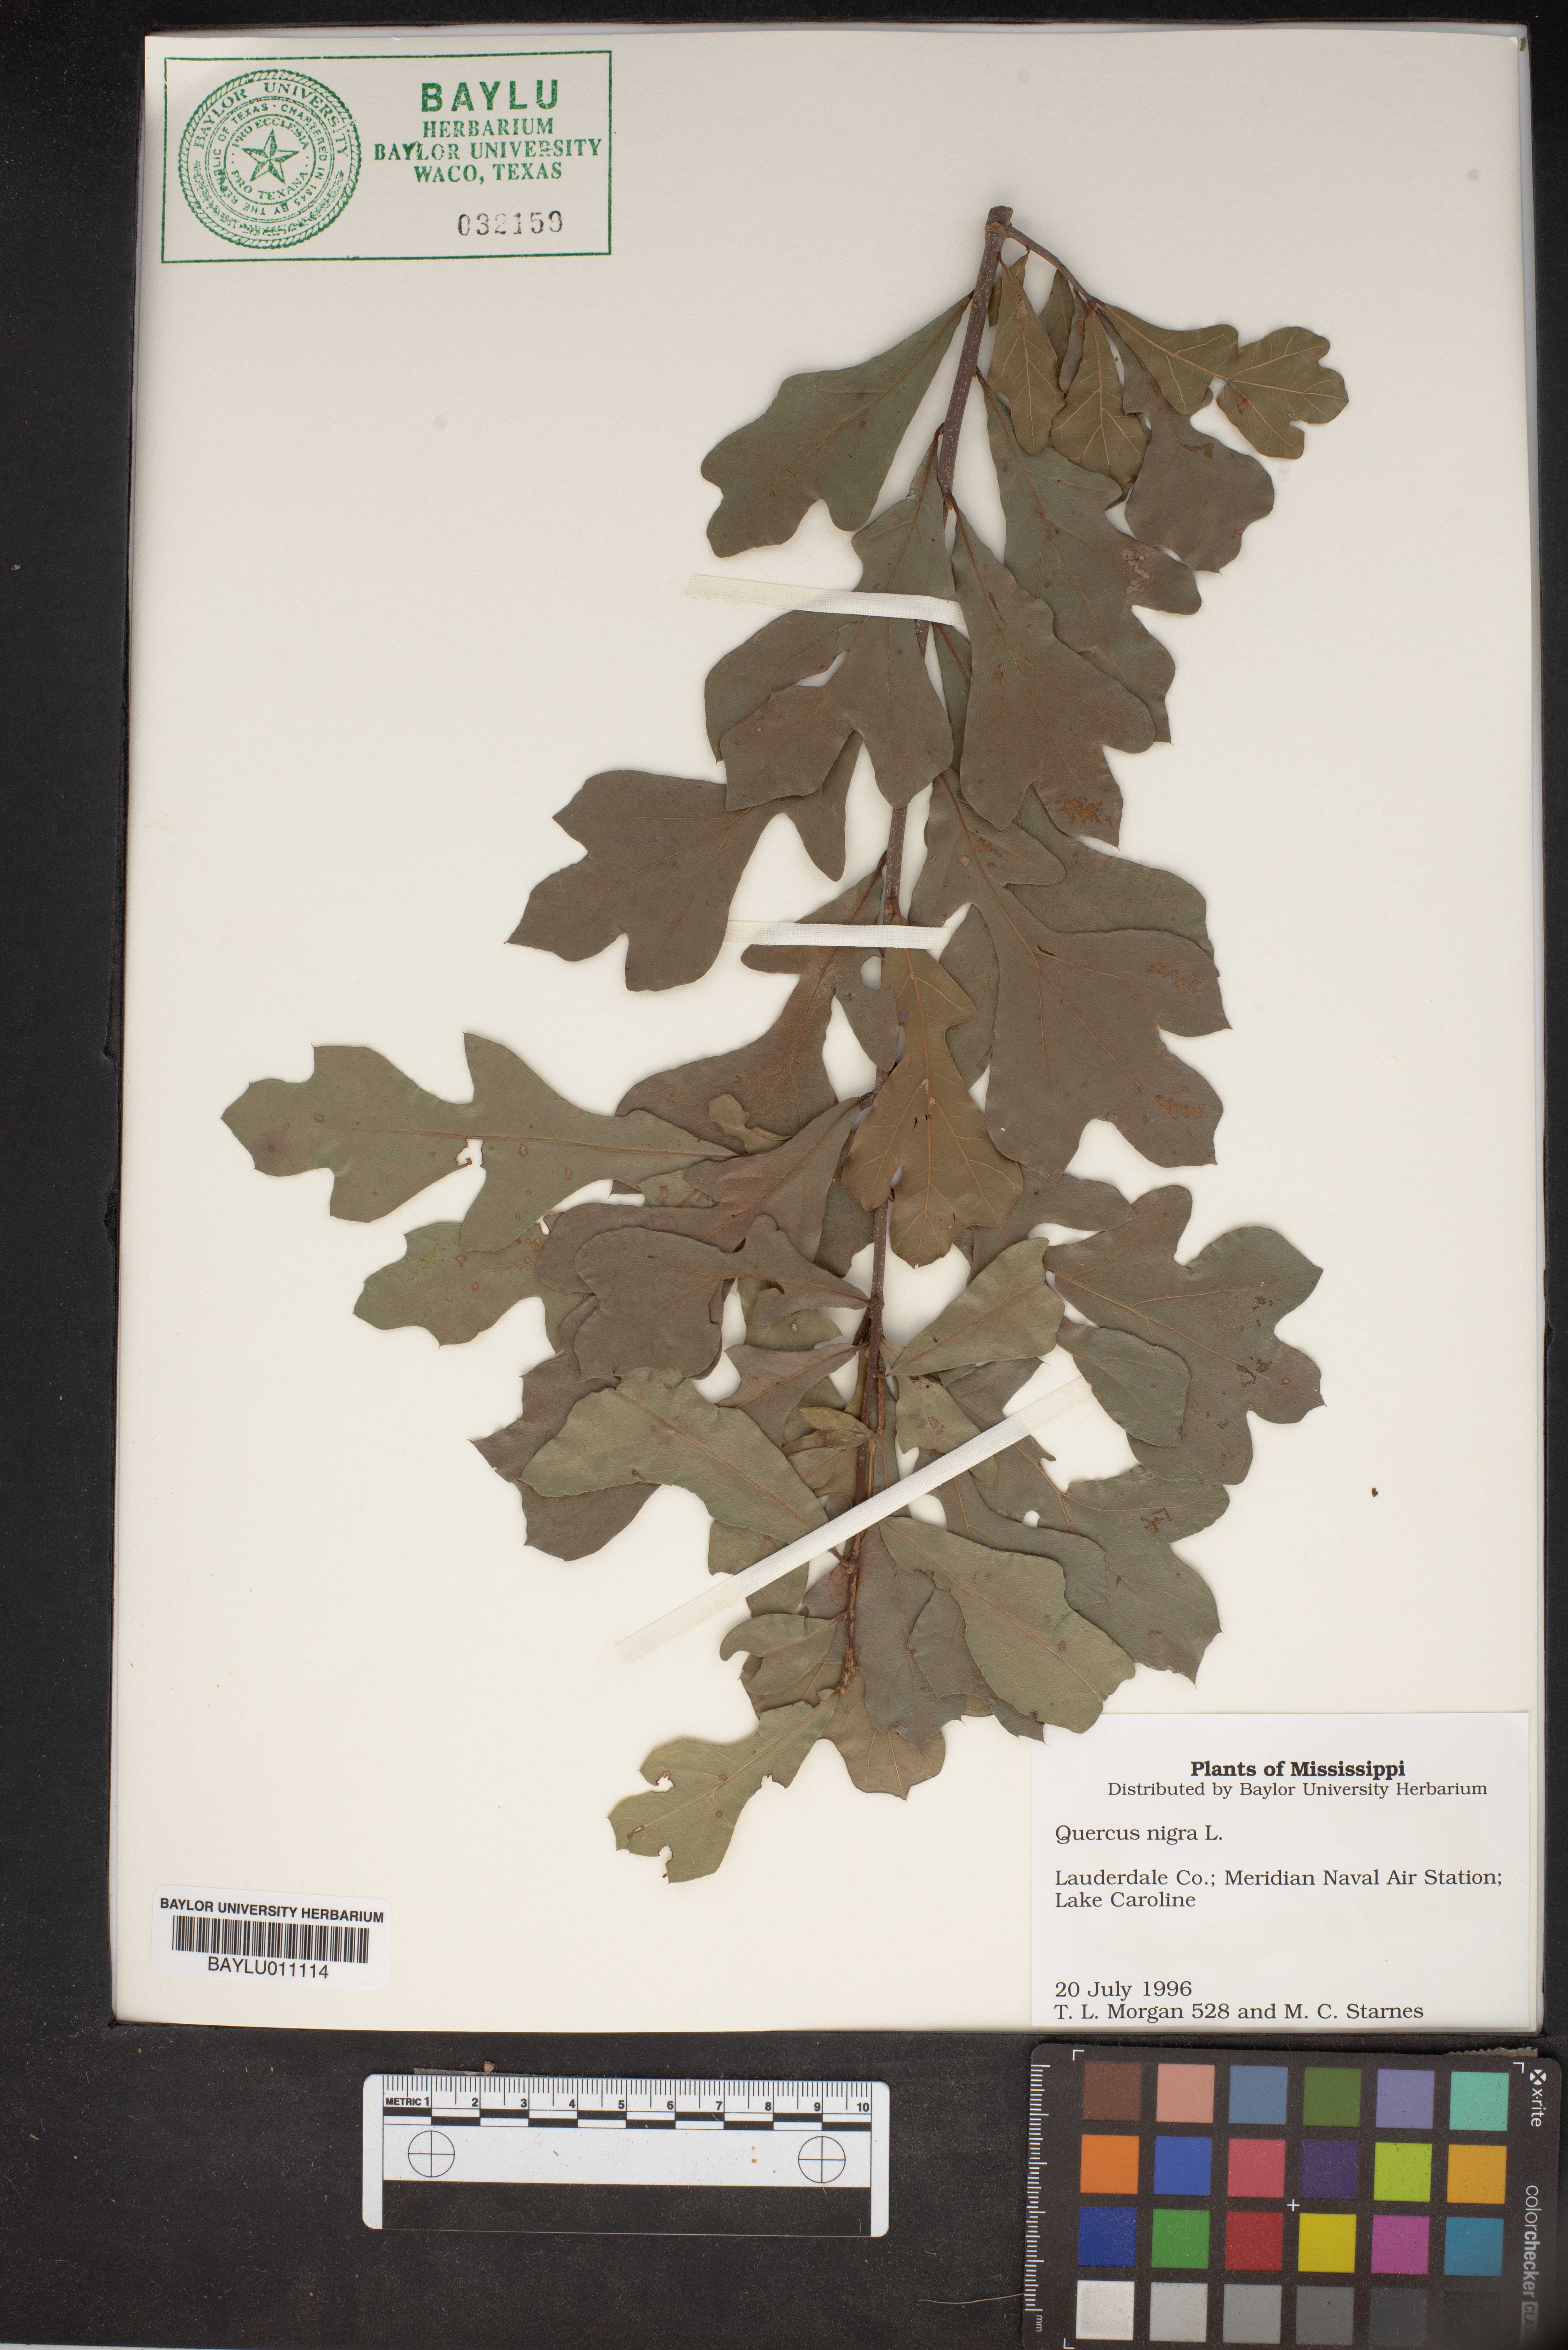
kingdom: Plantae
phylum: Tracheophyta
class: Magnoliopsida
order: Fagales
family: Fagaceae
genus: Quercus
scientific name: Quercus nigra
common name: Water oak
